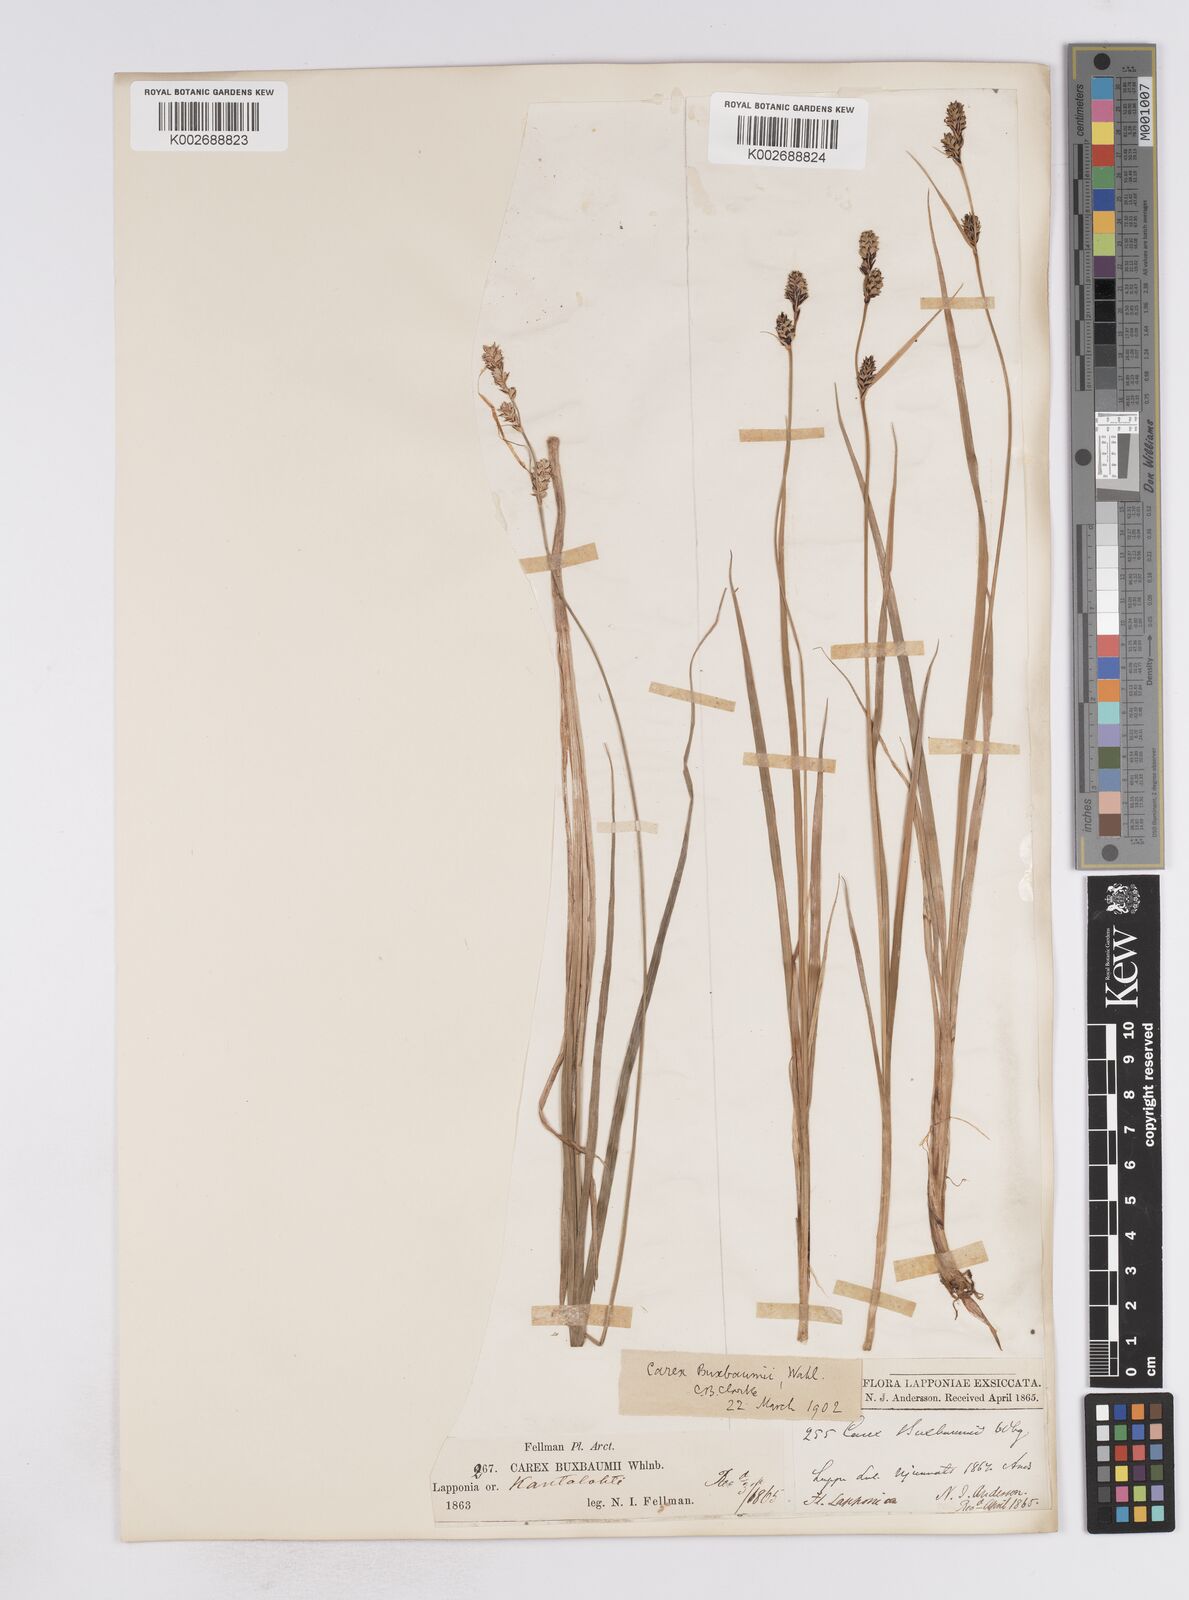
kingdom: Plantae
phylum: Tracheophyta
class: Liliopsida
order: Poales
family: Cyperaceae
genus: Carex
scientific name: Carex buxbaumii
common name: Club sedge
